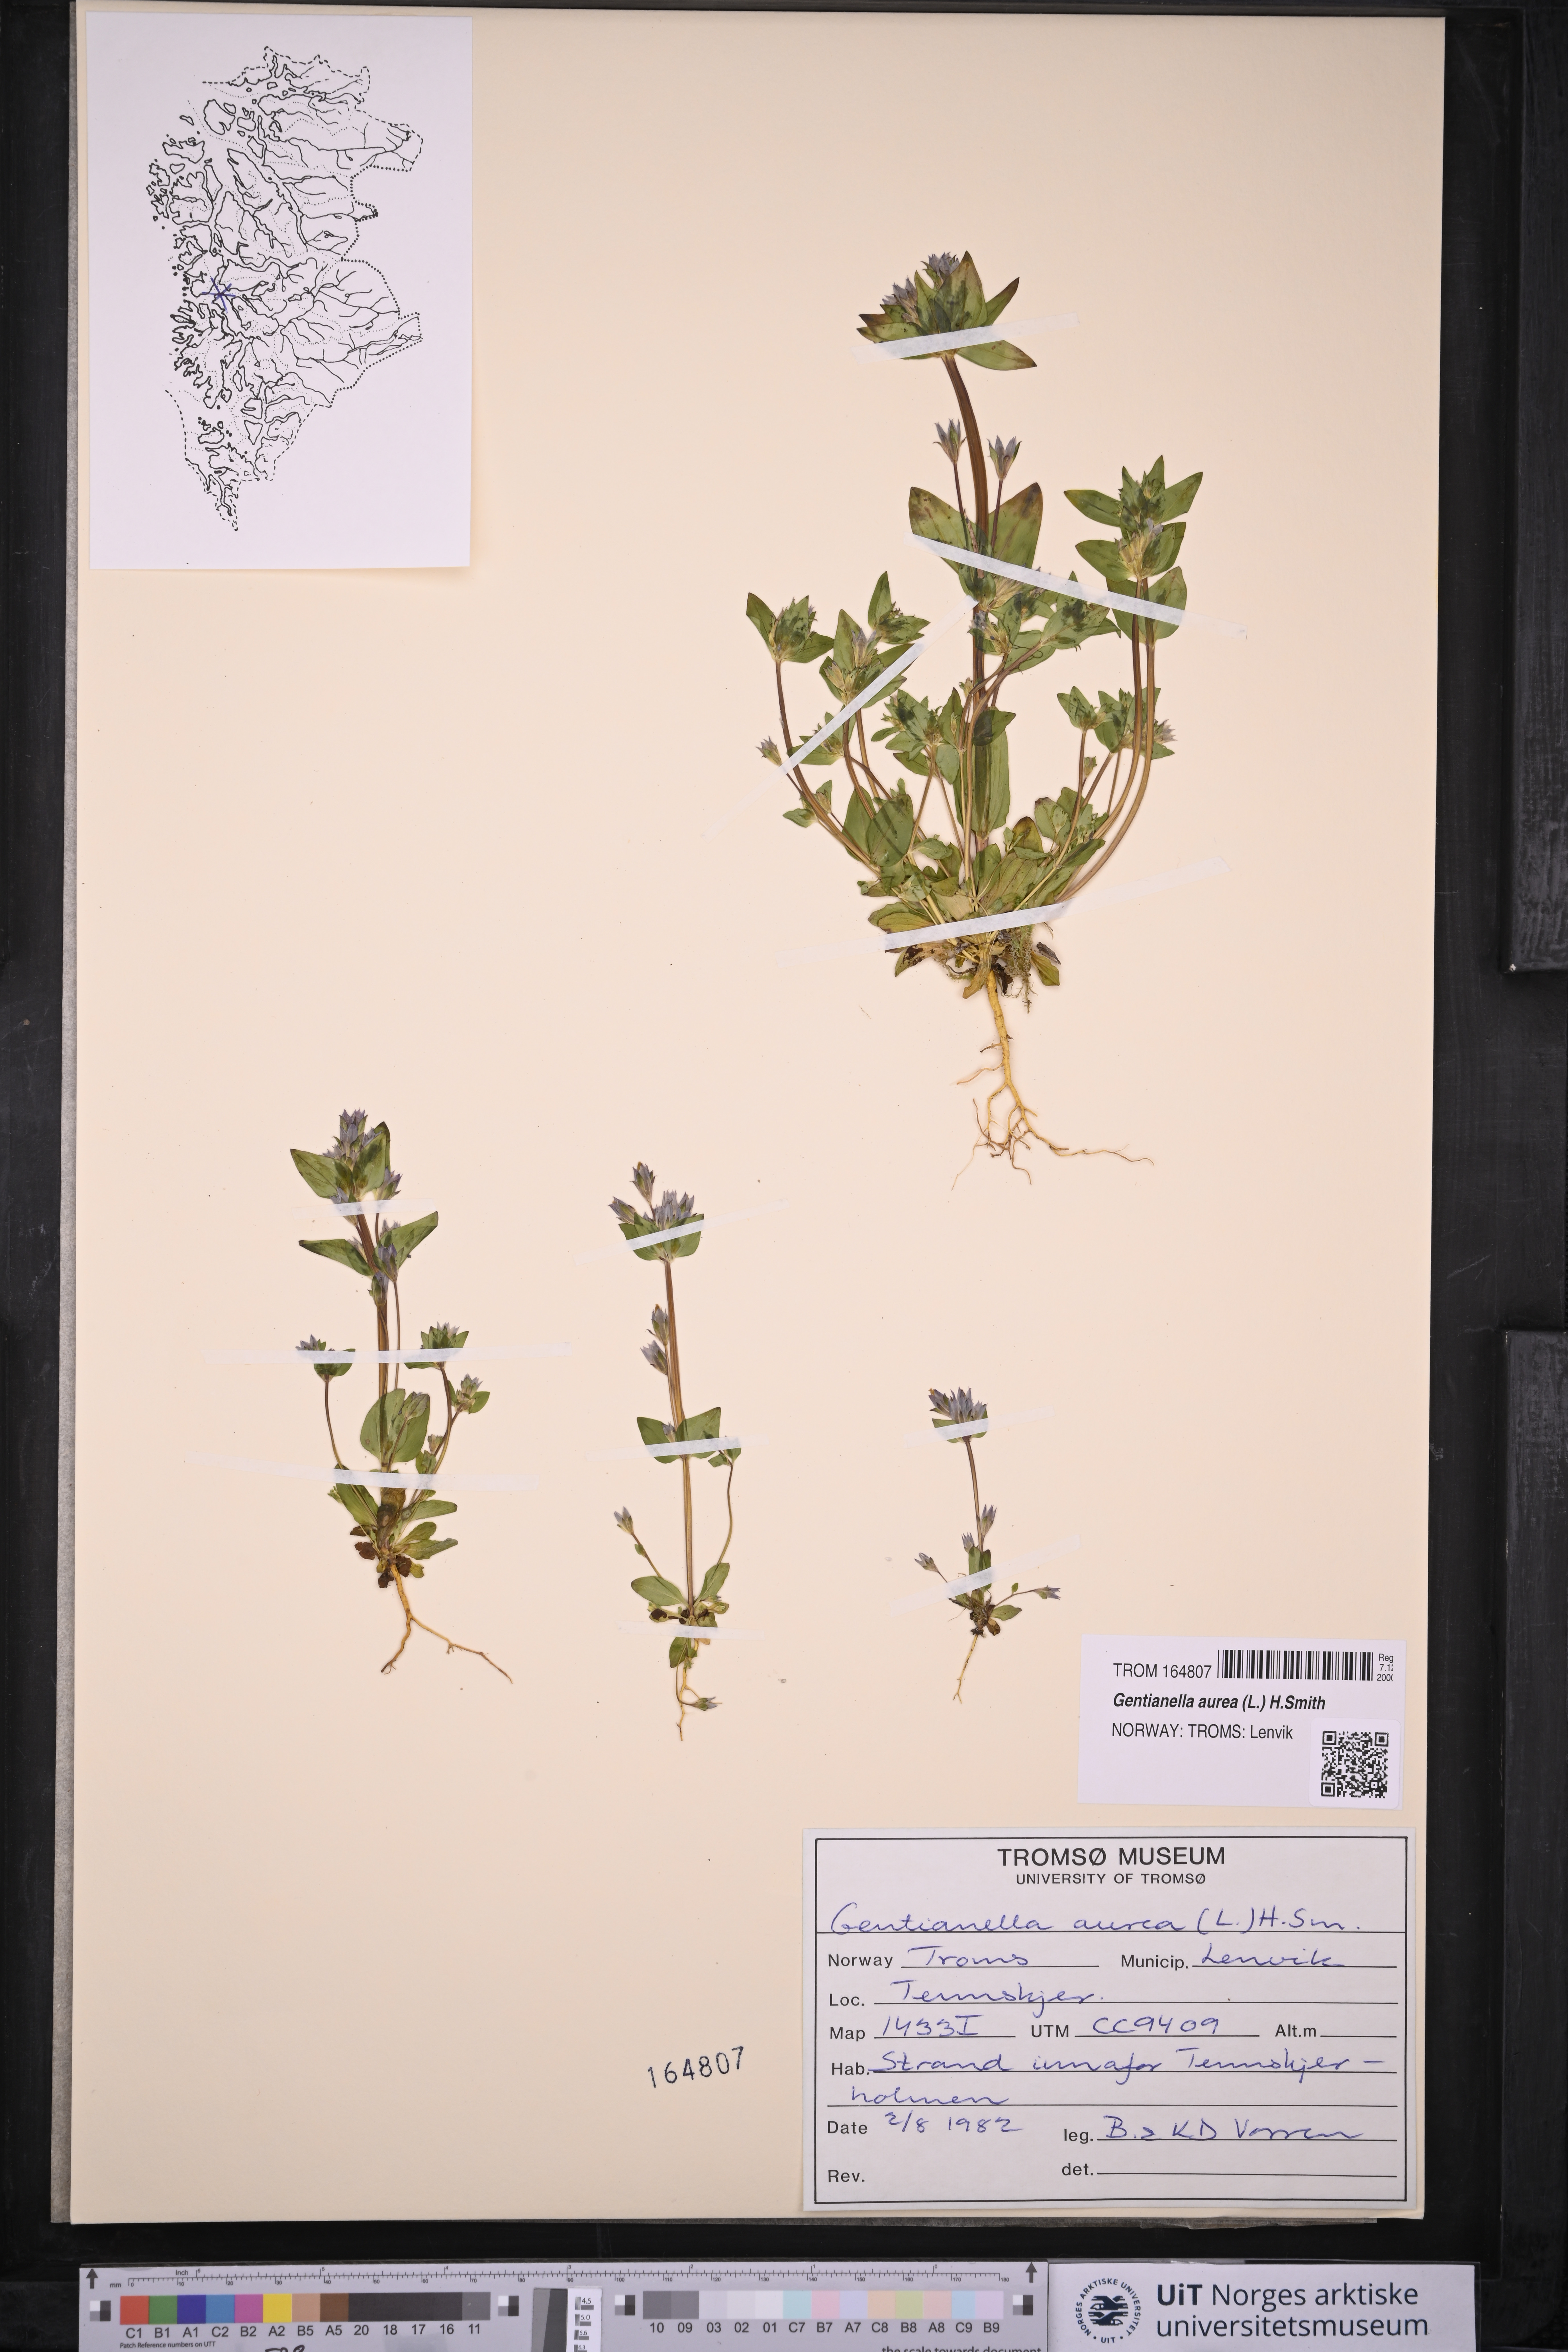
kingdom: Plantae
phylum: Tracheophyta
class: Magnoliopsida
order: Gentianales
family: Gentianaceae
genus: Gentianella
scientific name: Gentianella aurea
